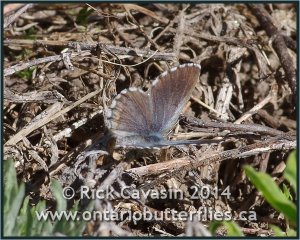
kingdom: Animalia
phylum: Arthropoda
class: Insecta
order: Lepidoptera
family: Lycaenidae
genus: Glaucopsyche
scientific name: Glaucopsyche piasus
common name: Arrowhead Blue
